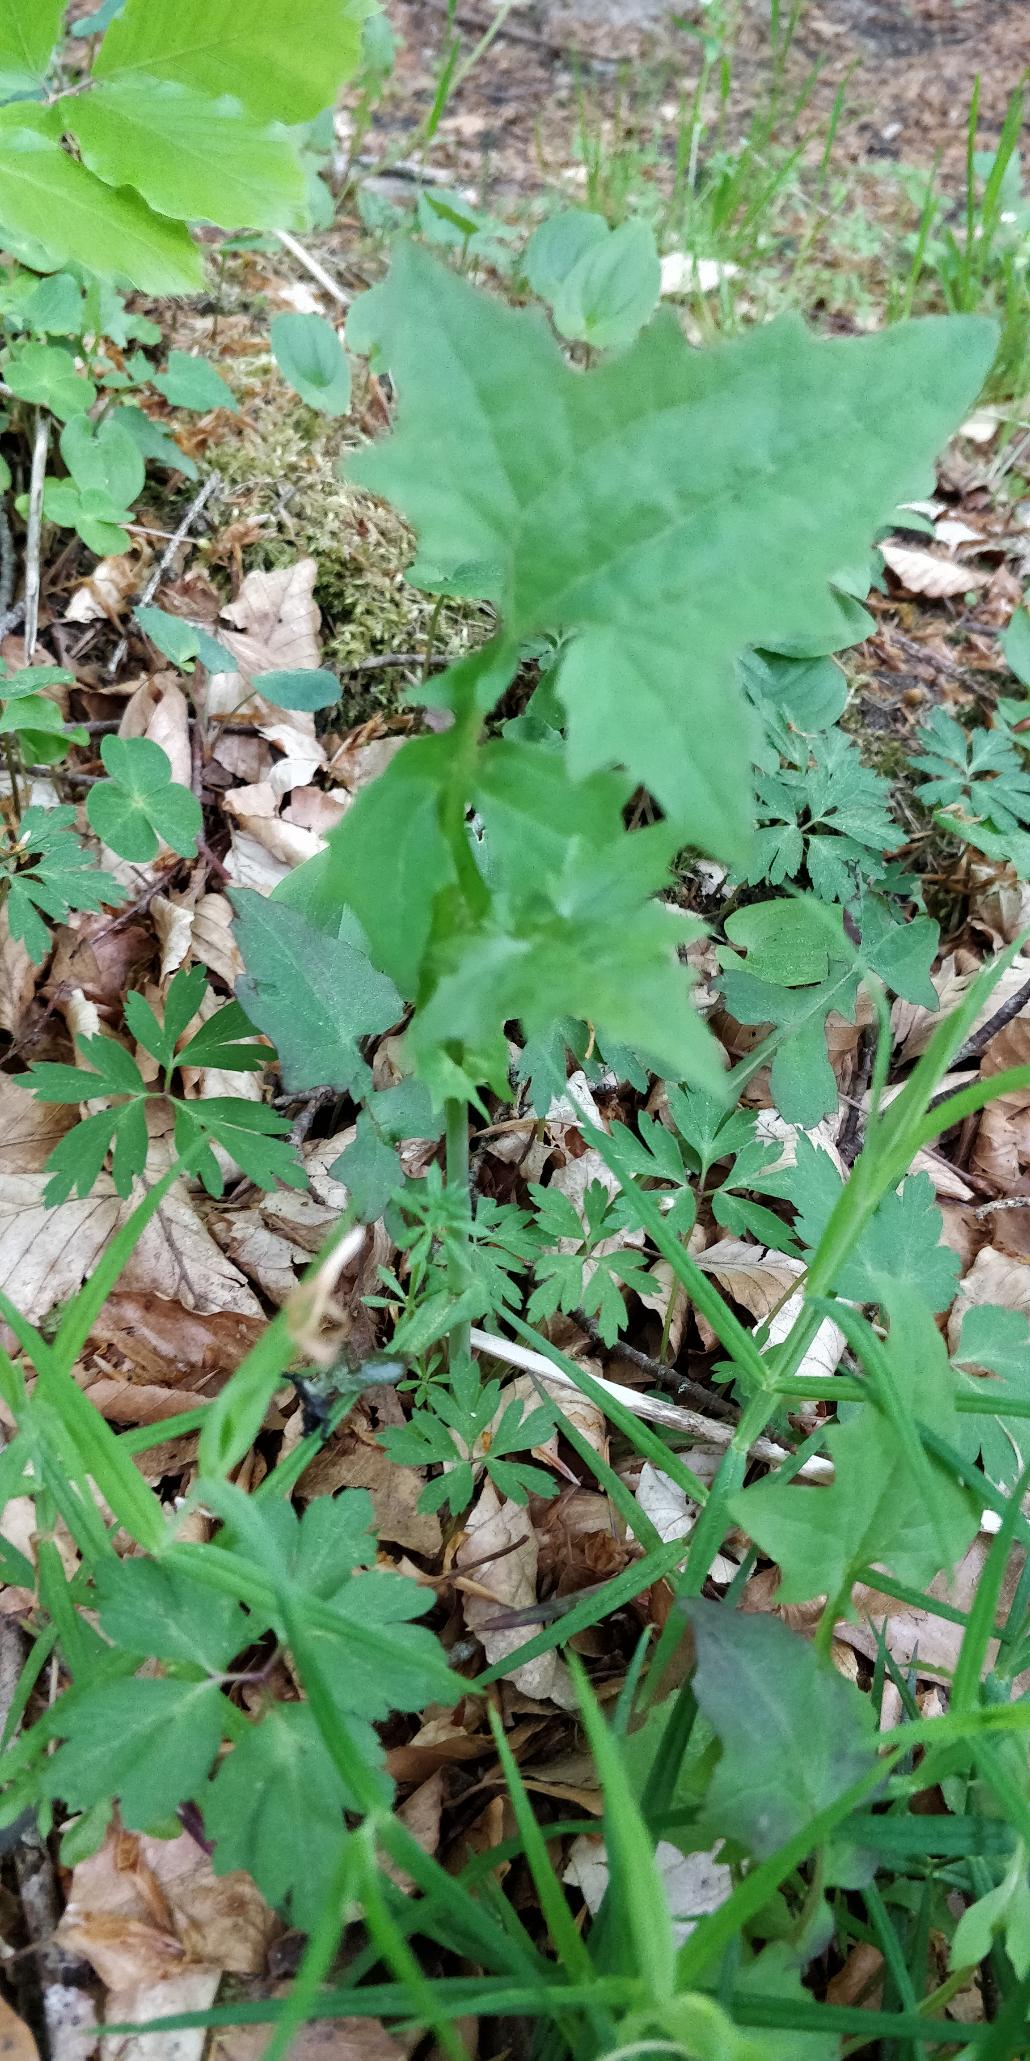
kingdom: Plantae
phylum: Tracheophyta
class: Magnoliopsida
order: Asterales
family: Asteraceae
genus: Mycelis
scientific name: Mycelis muralis
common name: Skov-salat
